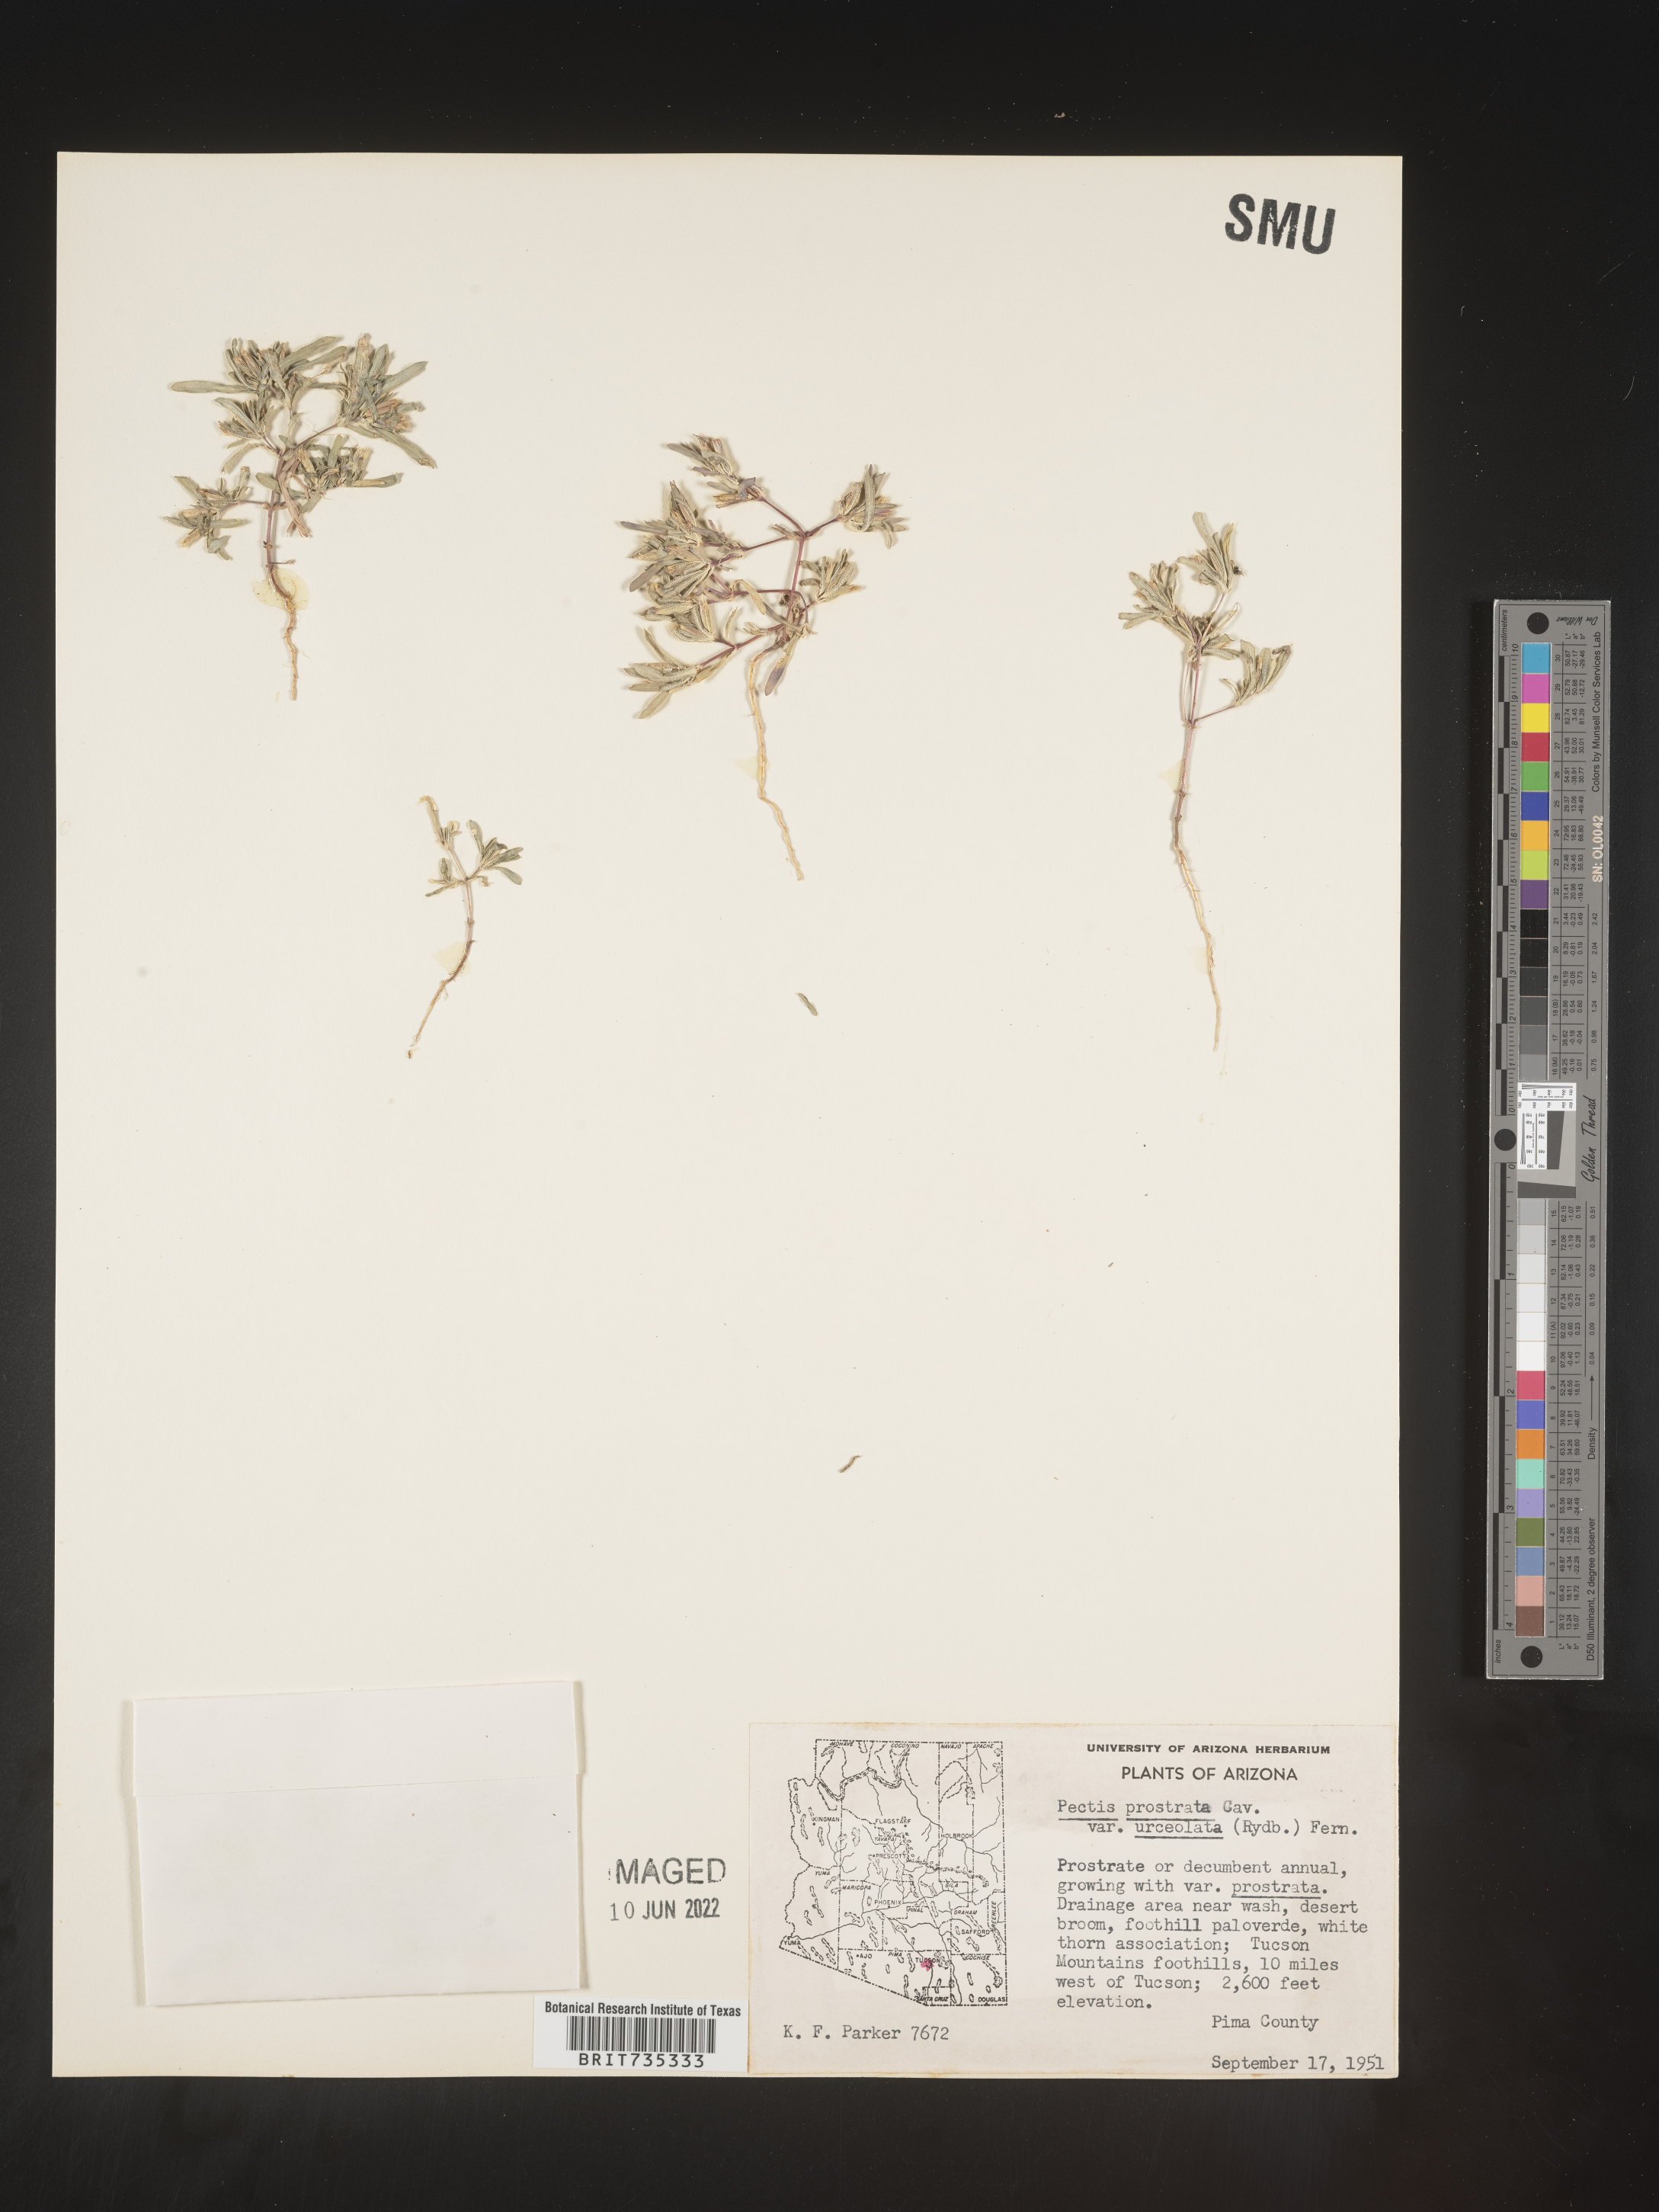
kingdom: Plantae
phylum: Tracheophyta
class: Magnoliopsida
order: Asterales
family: Asteraceae
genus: Pectis
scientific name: Pectis prostrata
